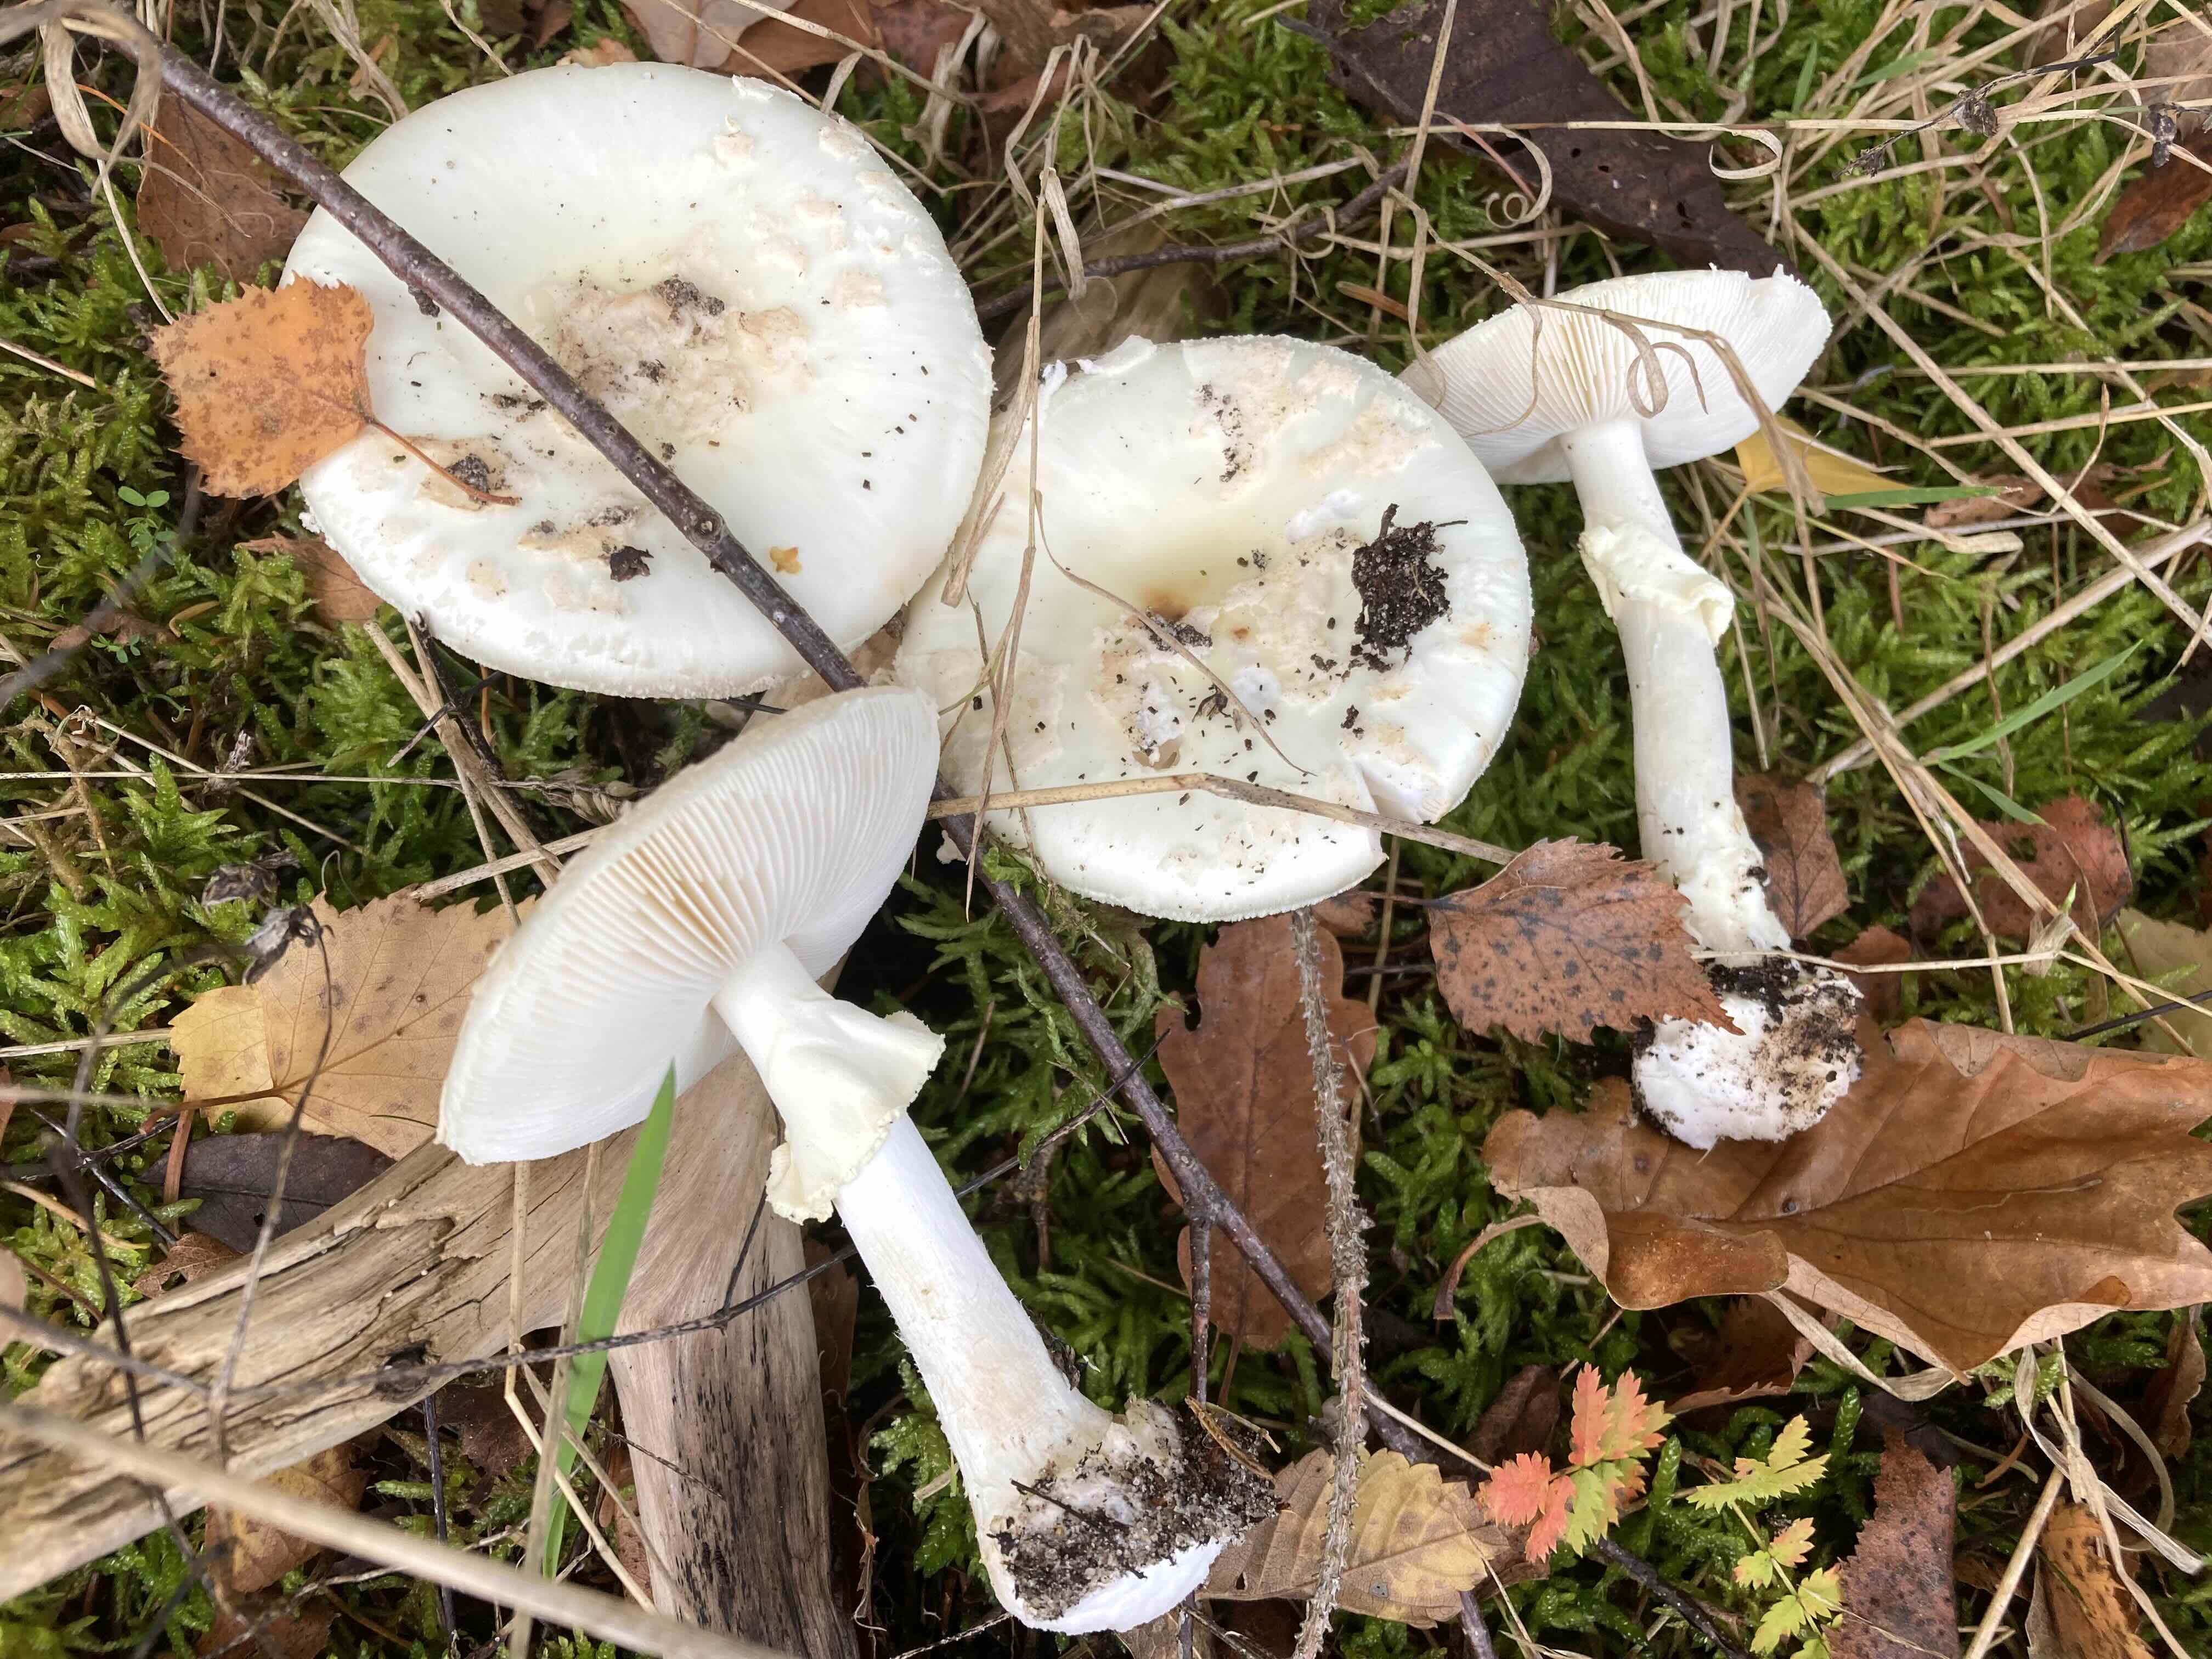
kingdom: Fungi
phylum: Basidiomycota
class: Agaricomycetes
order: Agaricales
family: Amanitaceae
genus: Amanita
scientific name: Amanita citrina
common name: kugleknoldet fluesvamp
